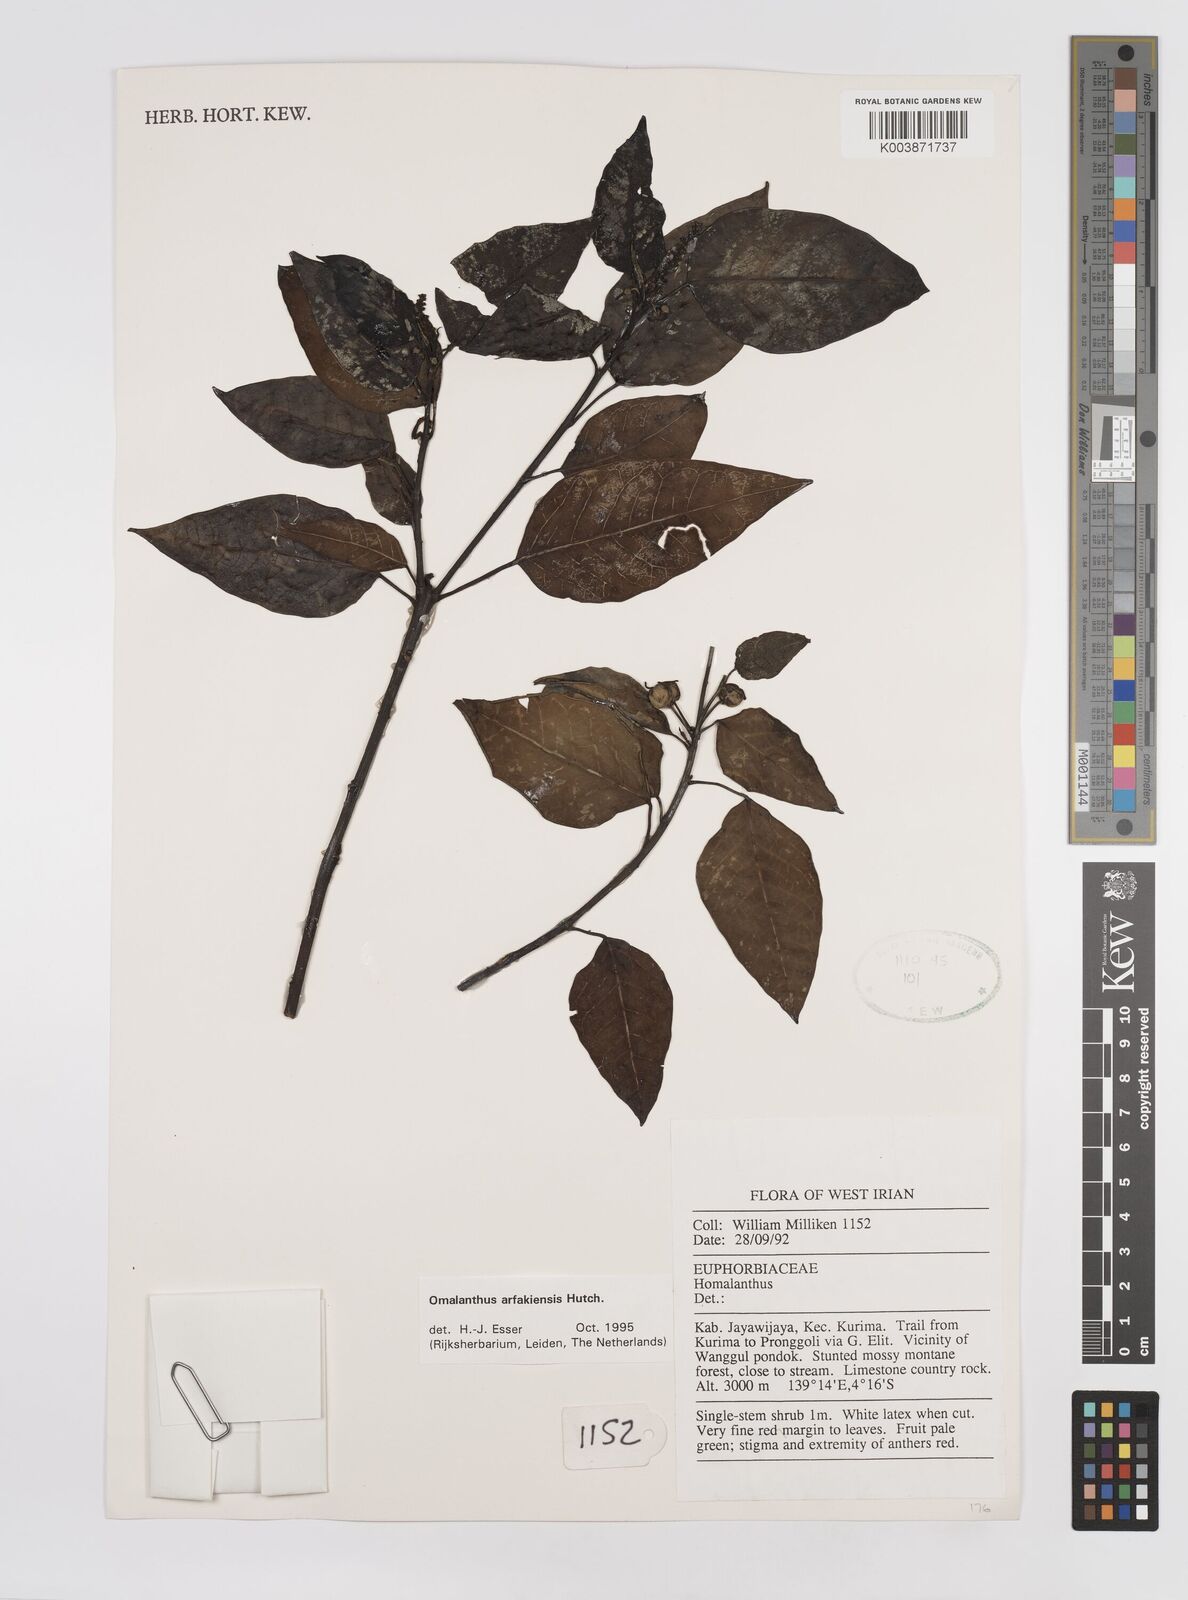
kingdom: Plantae
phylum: Tracheophyta
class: Magnoliopsida
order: Malpighiales
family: Euphorbiaceae
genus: Homalanthus
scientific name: Homalanthus arfakiensis
